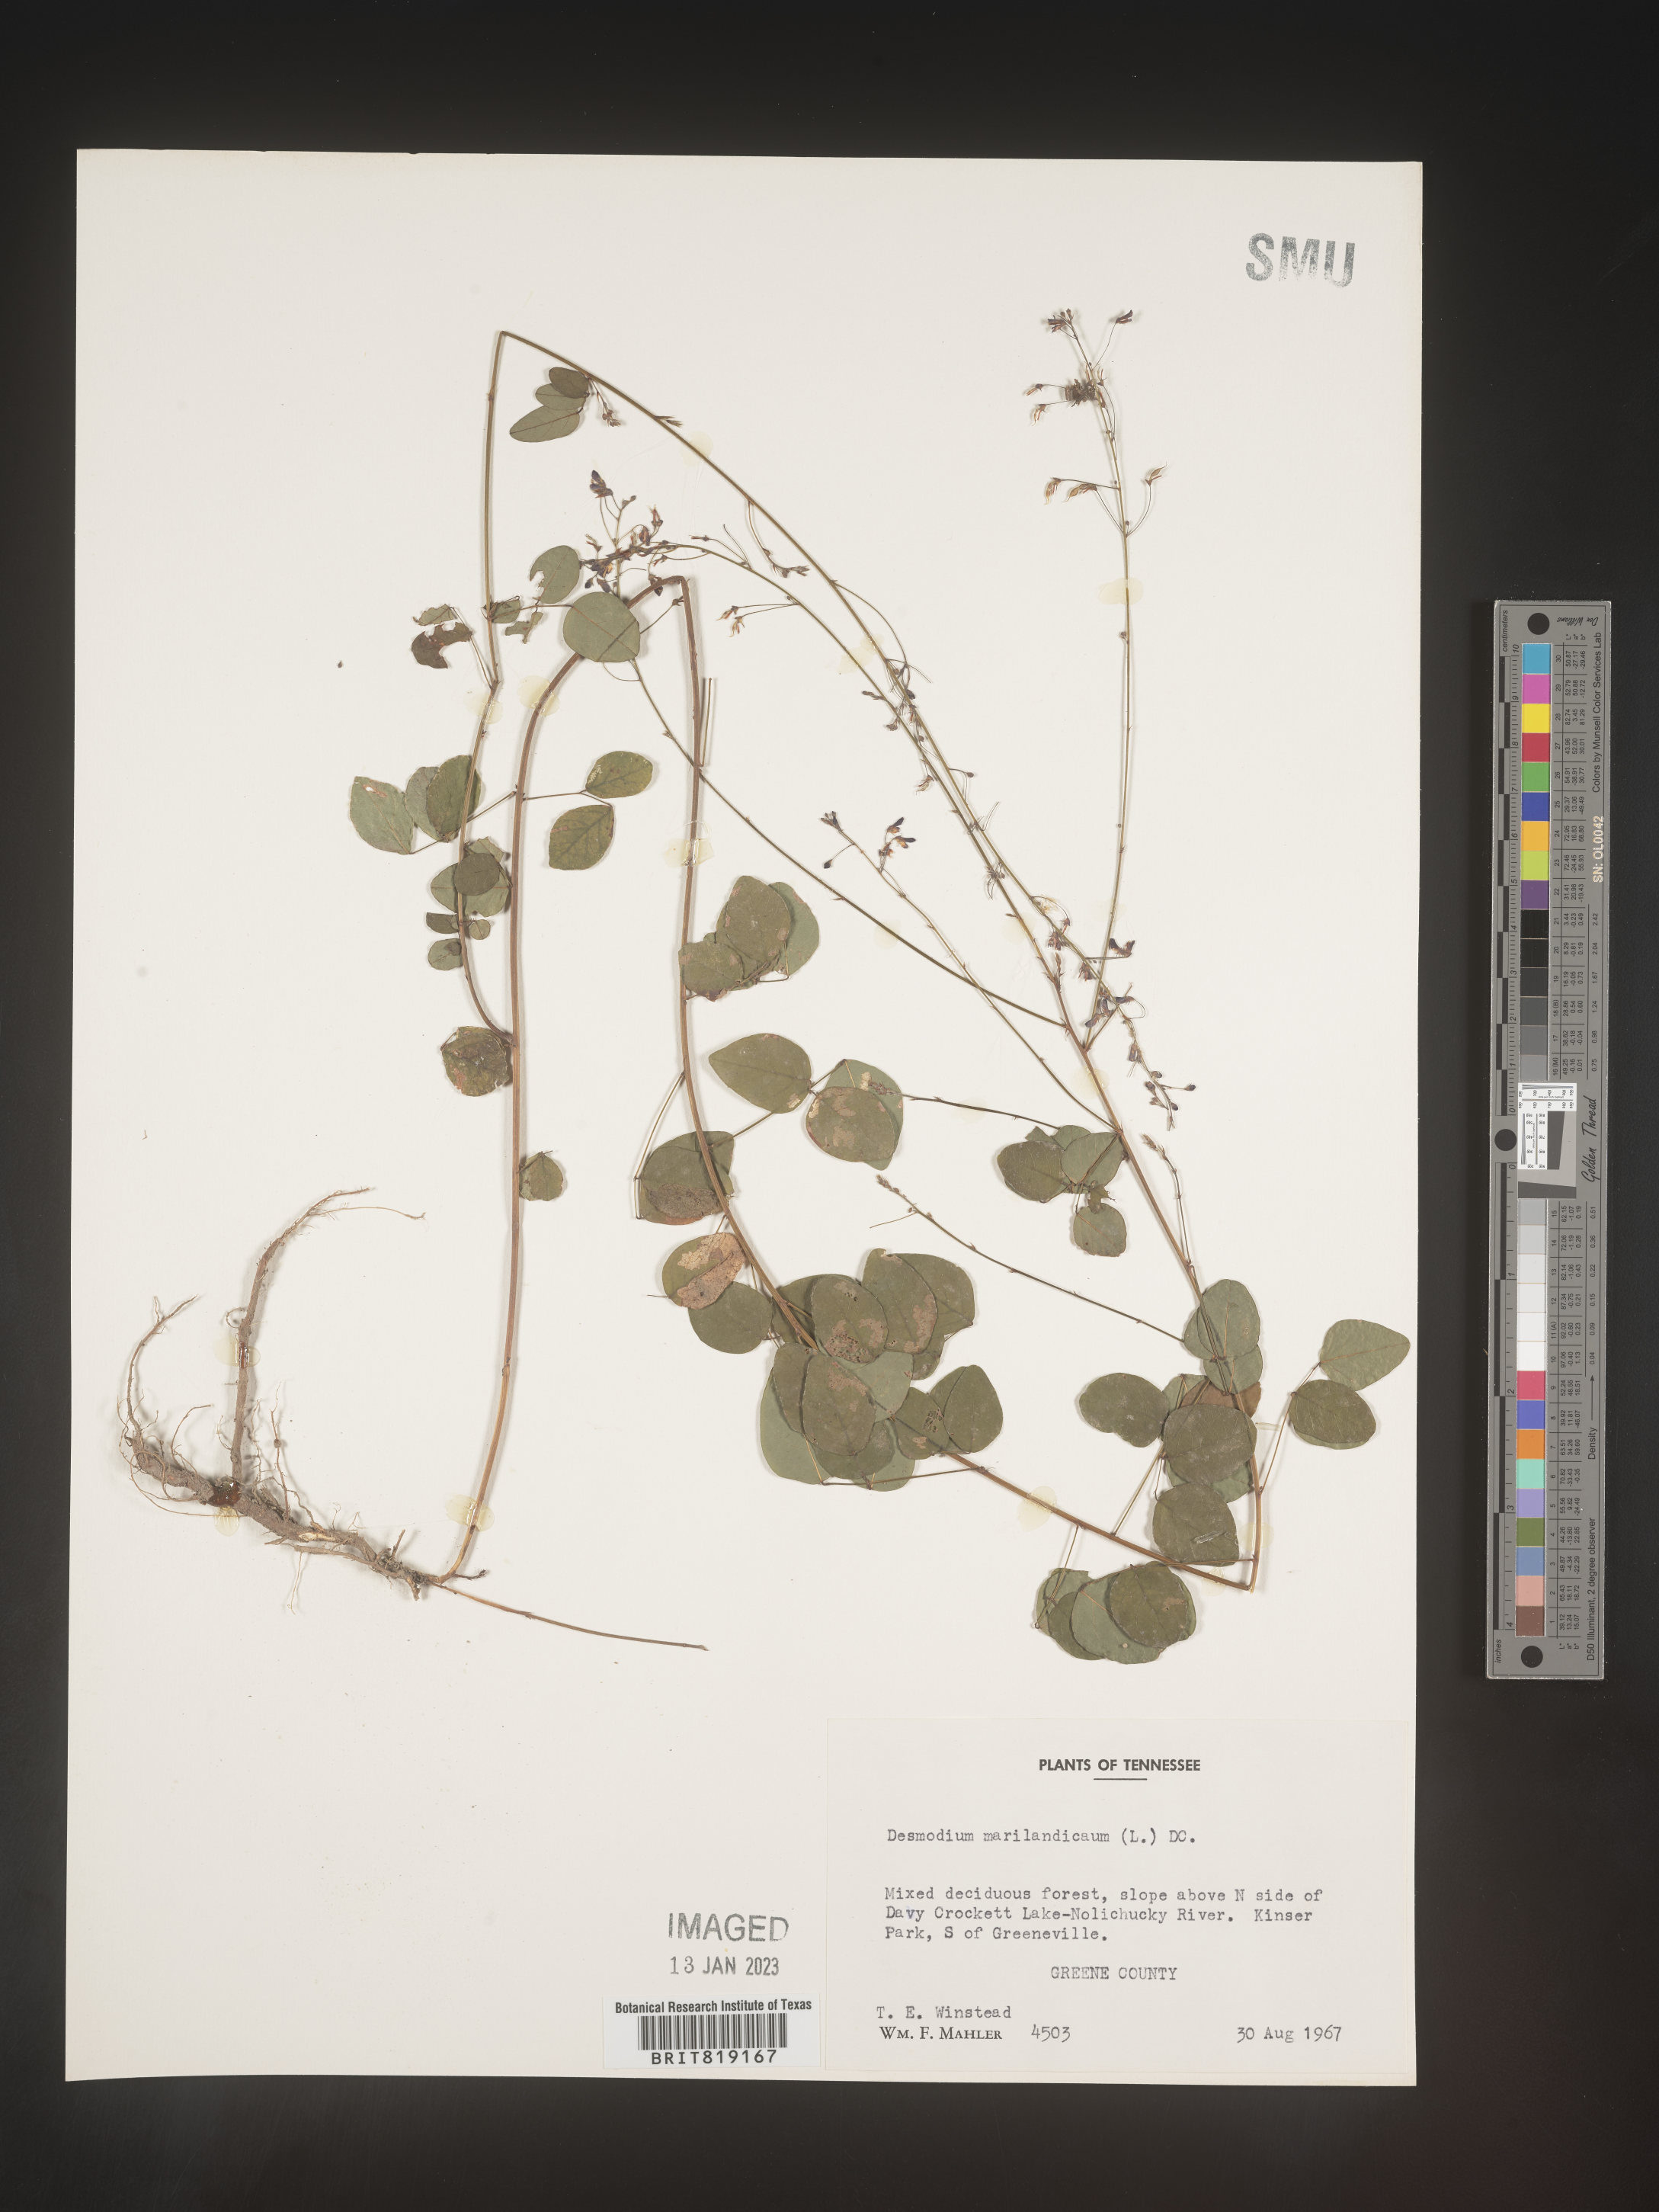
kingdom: Plantae
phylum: Tracheophyta
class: Magnoliopsida
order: Fabales
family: Fabaceae
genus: Desmodium
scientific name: Desmodium marilandicum
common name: Maryland tick-trefoil
